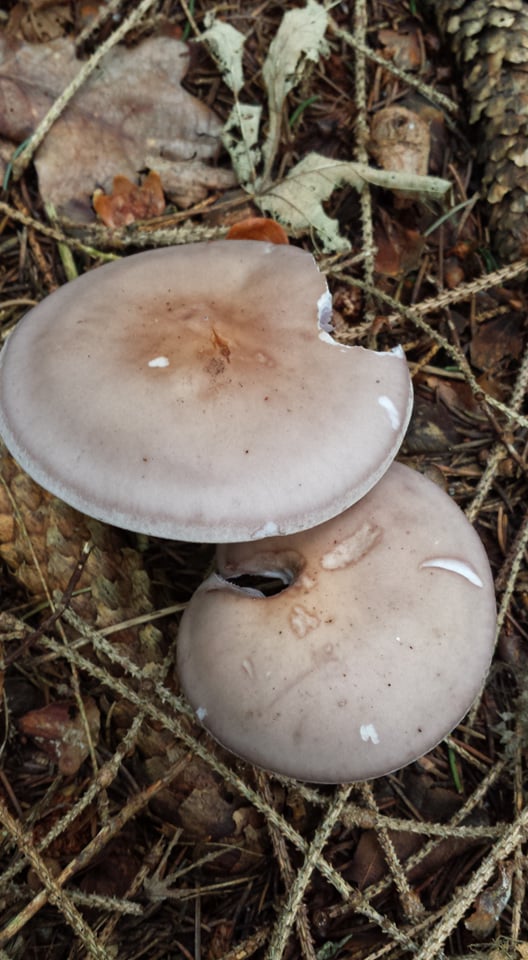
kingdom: Fungi
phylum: Basidiomycota
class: Agaricomycetes
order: Agaricales
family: Tricholomataceae
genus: Lepista
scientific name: Lepista nuda
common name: violet hekseringshat
